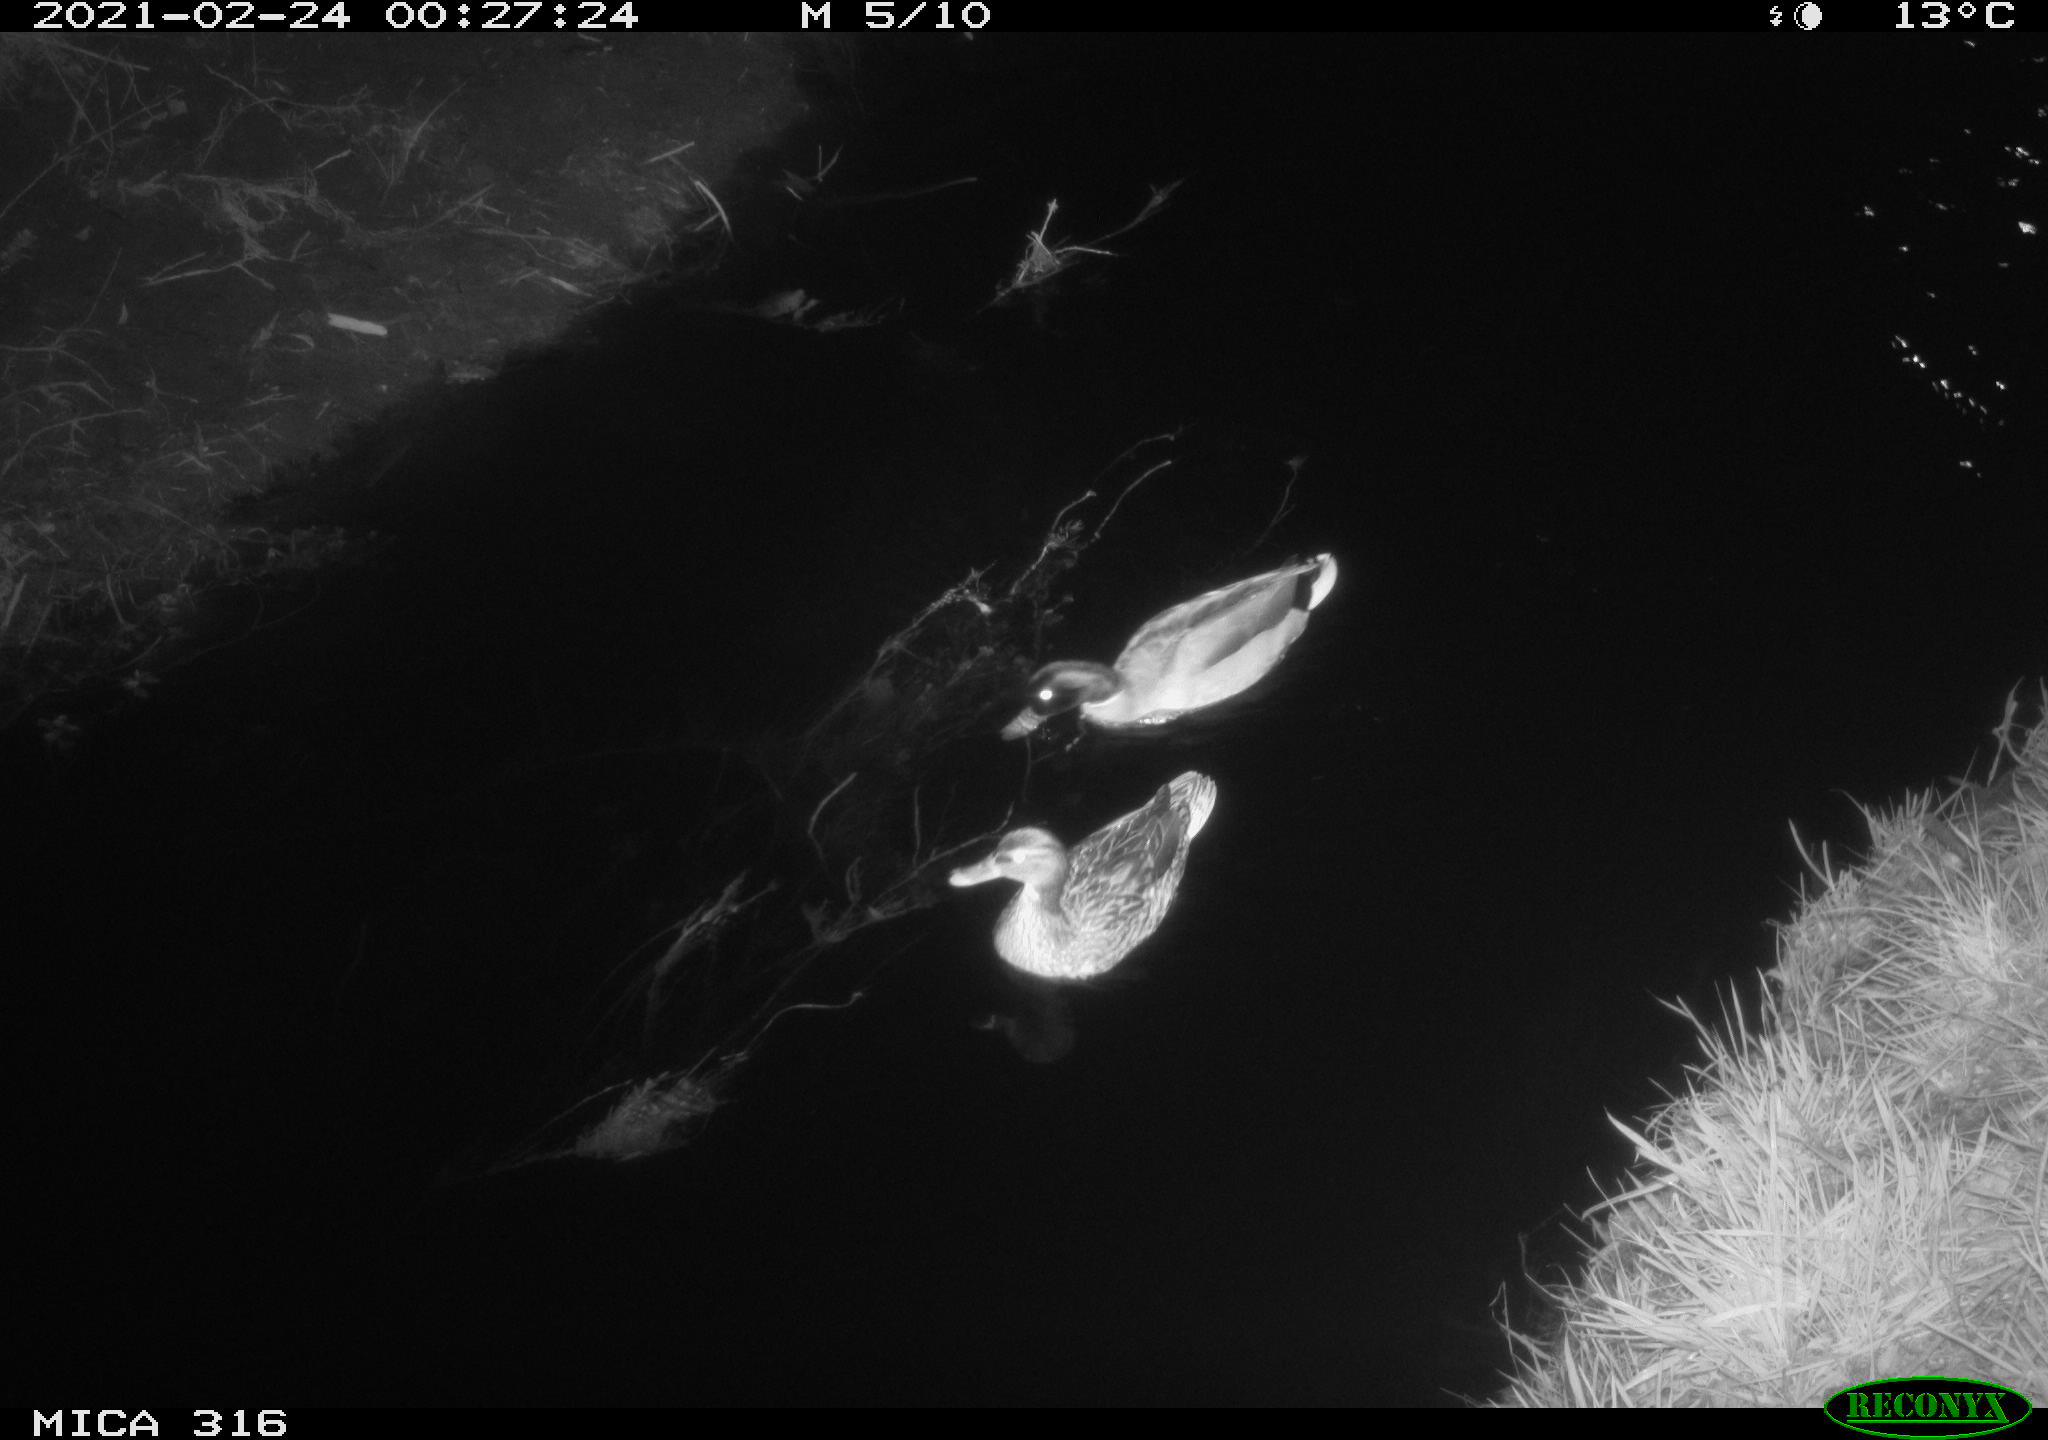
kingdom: Animalia
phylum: Chordata
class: Aves
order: Anseriformes
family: Anatidae
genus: Anas
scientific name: Anas platyrhynchos
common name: Mallard
